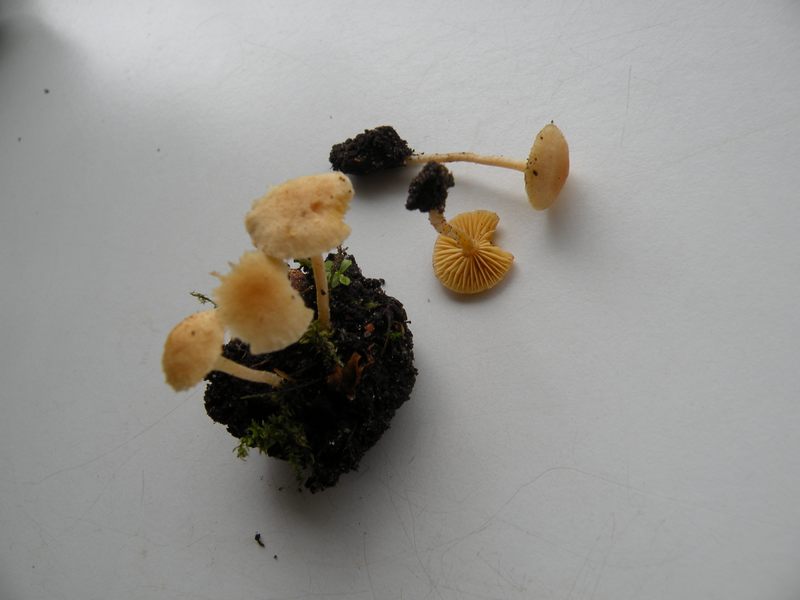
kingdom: Fungi
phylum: Basidiomycota
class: Agaricomycetes
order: Agaricales
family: Tubariaceae
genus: Tubaria
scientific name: Tubaria dispersa
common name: tjørne-fnughat
